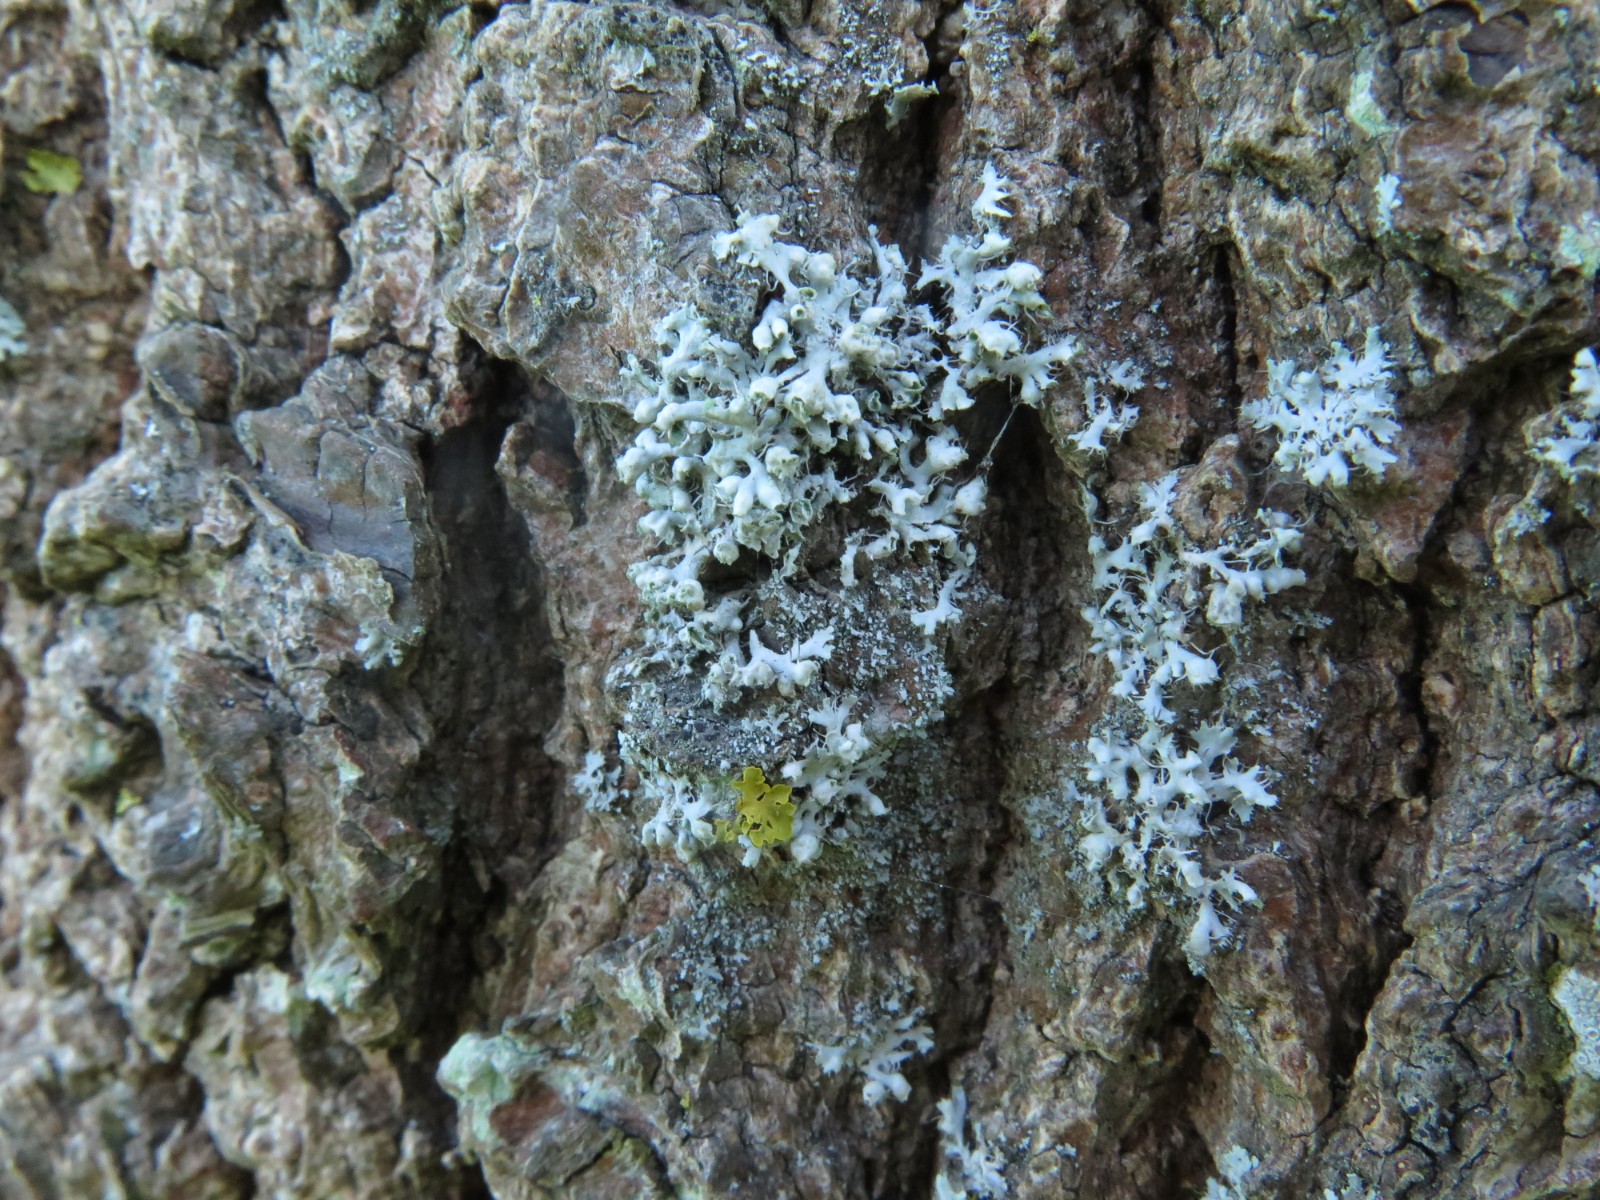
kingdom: Fungi
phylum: Ascomycota
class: Lecanoromycetes
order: Caliciales
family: Physciaceae
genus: Physcia
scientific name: Physcia adscendens
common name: hætte-rosetlav
